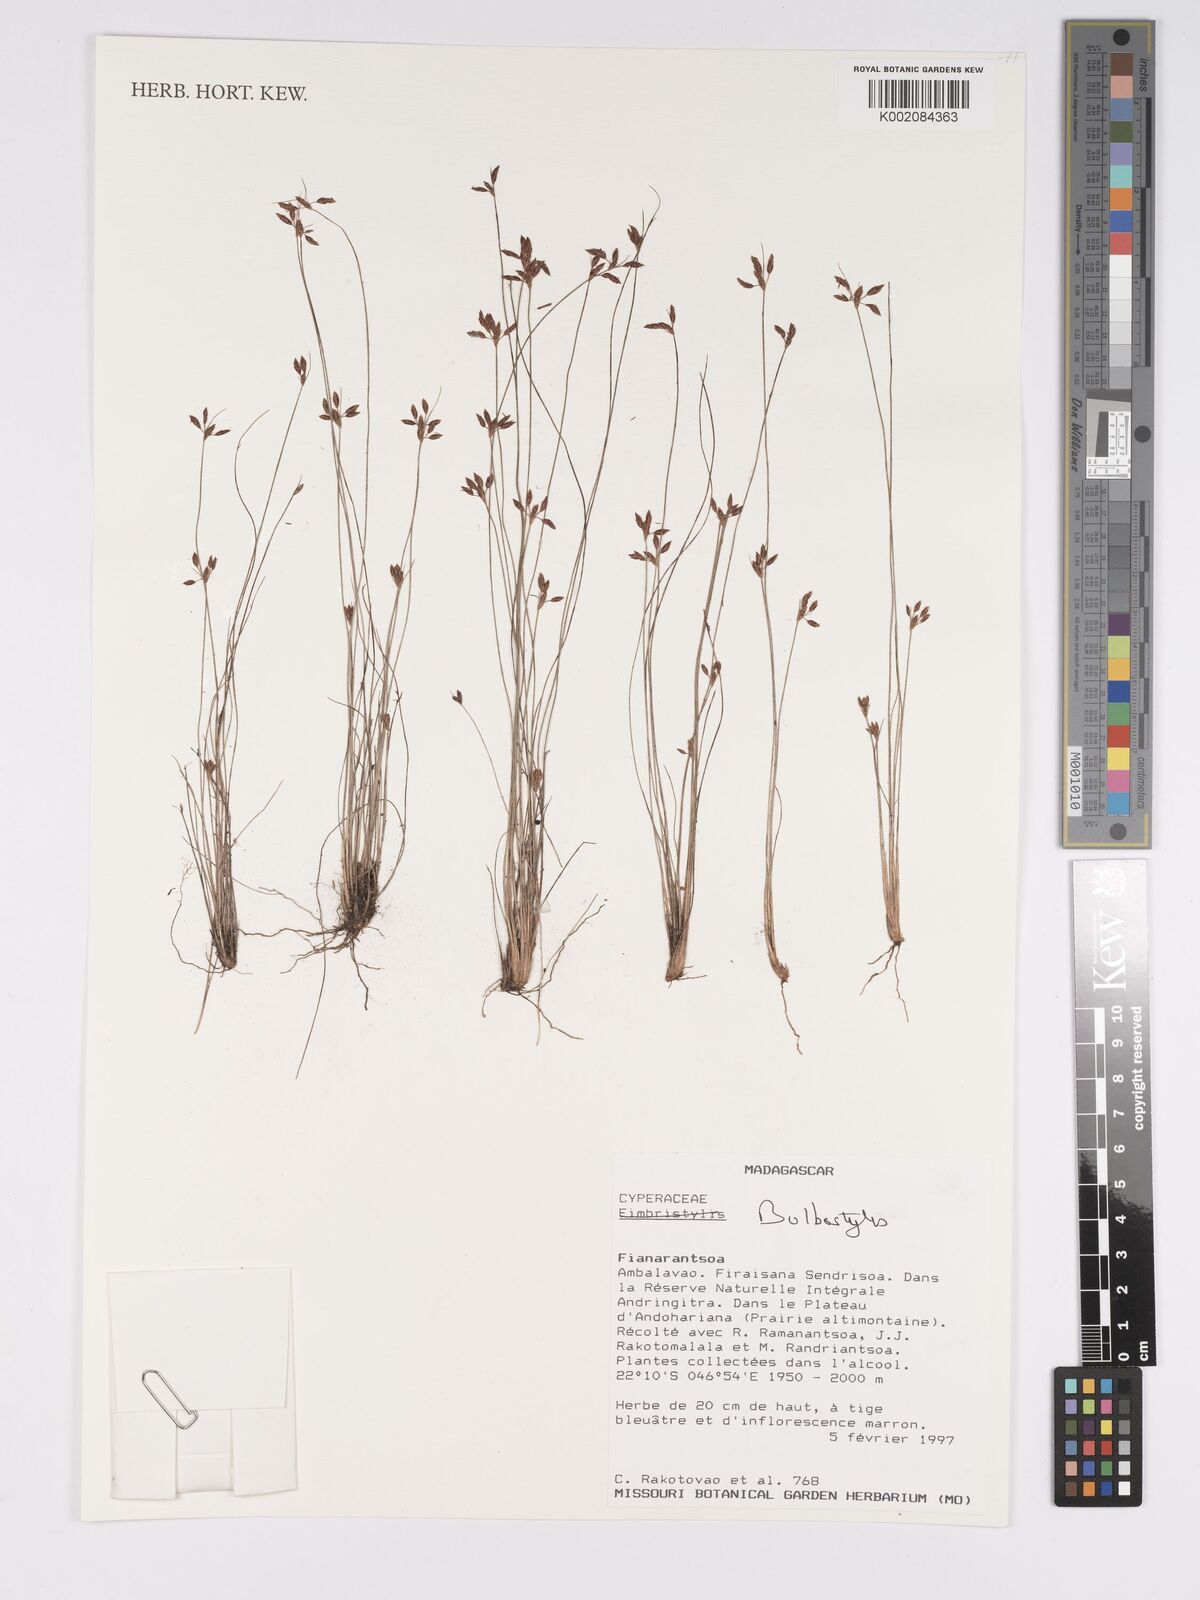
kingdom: Plantae
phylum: Tracheophyta
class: Liliopsida
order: Poales
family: Cyperaceae
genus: Bulbostylis
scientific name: Bulbostylis
